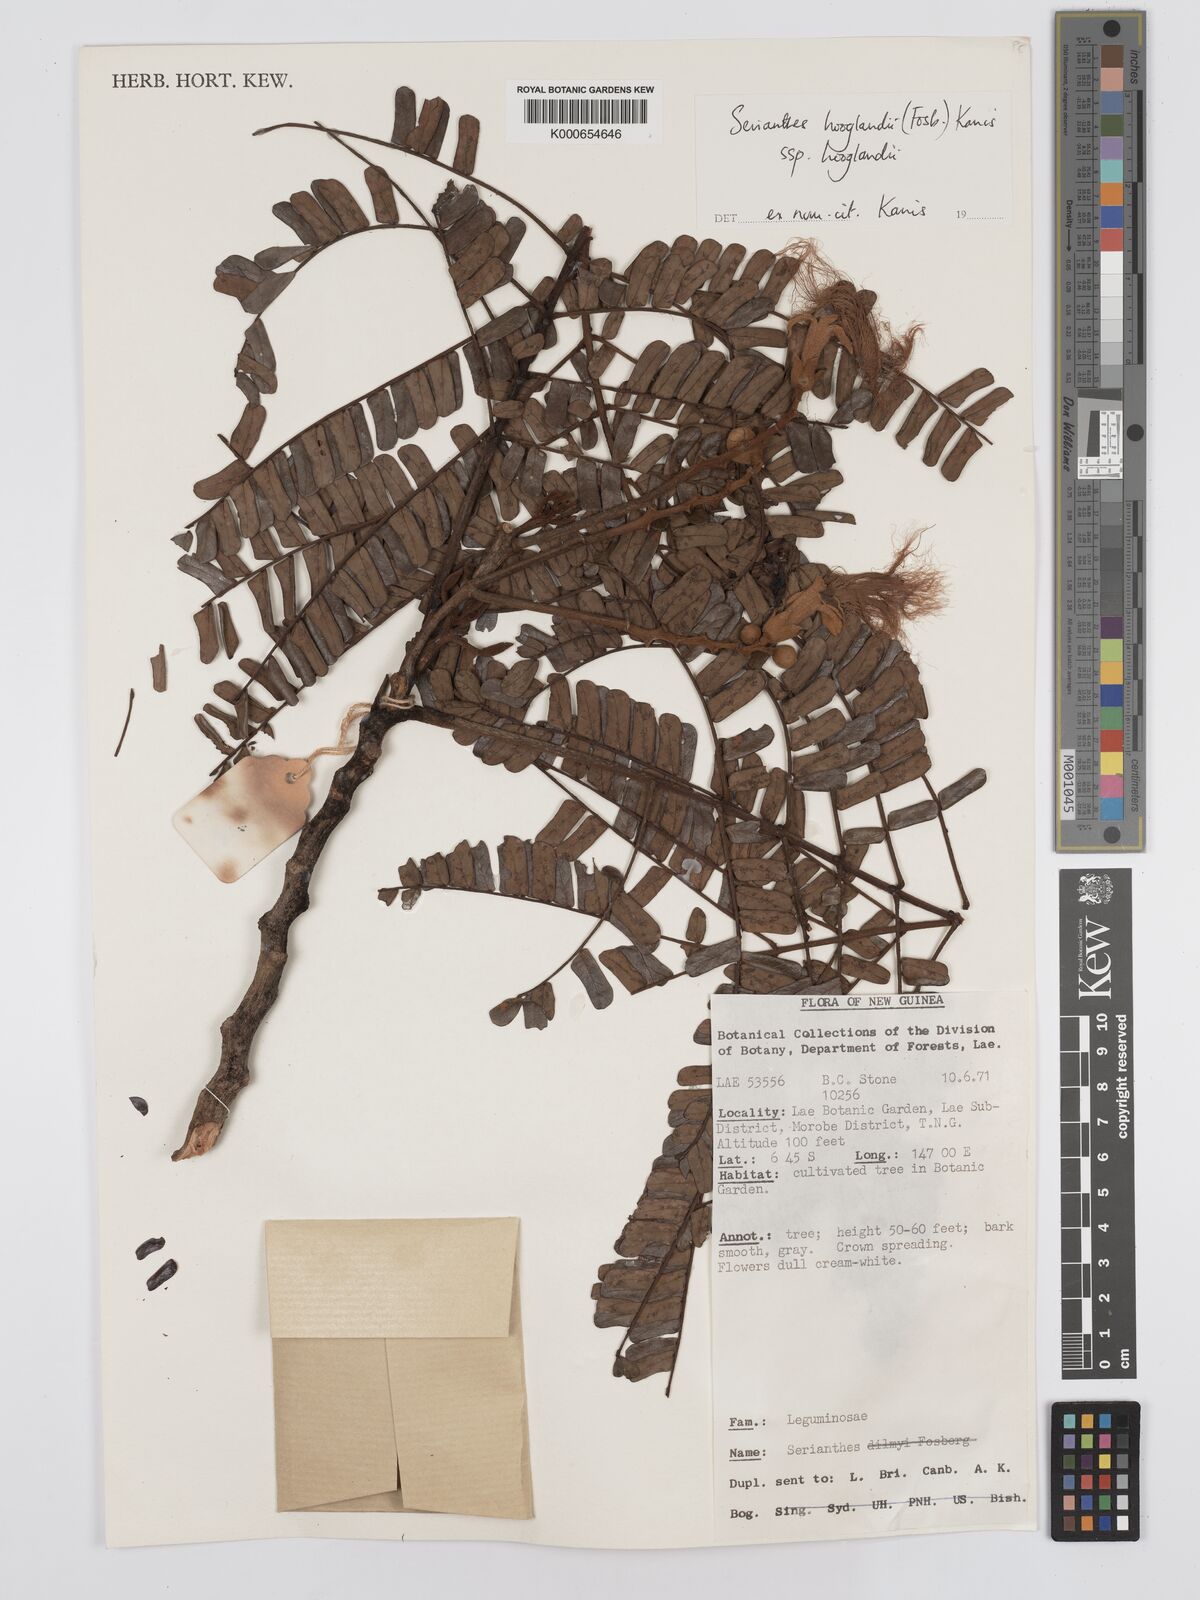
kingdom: Plantae
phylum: Tracheophyta
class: Magnoliopsida
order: Fabales
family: Fabaceae
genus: Serianthes
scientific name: Serianthes hooglandii
